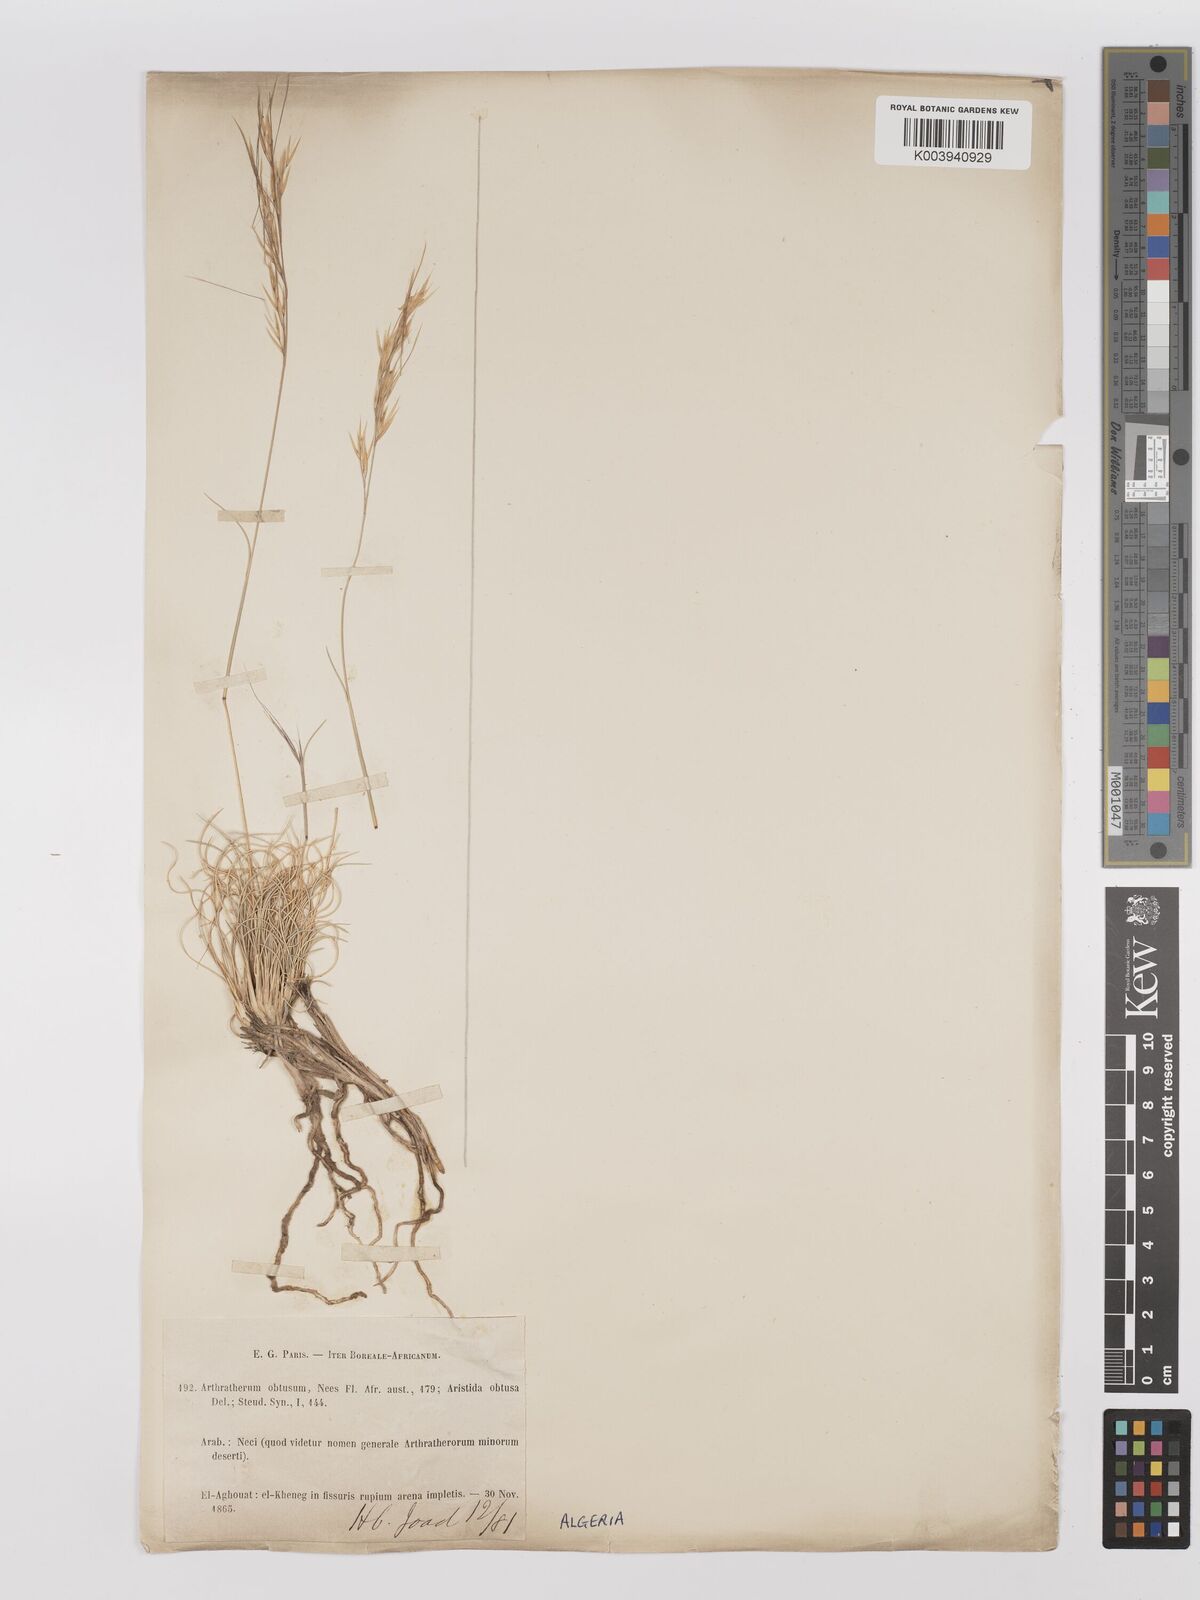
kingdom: Plantae
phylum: Tracheophyta
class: Liliopsida
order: Poales
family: Poaceae
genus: Stipagrostis
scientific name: Stipagrostis obtusa
